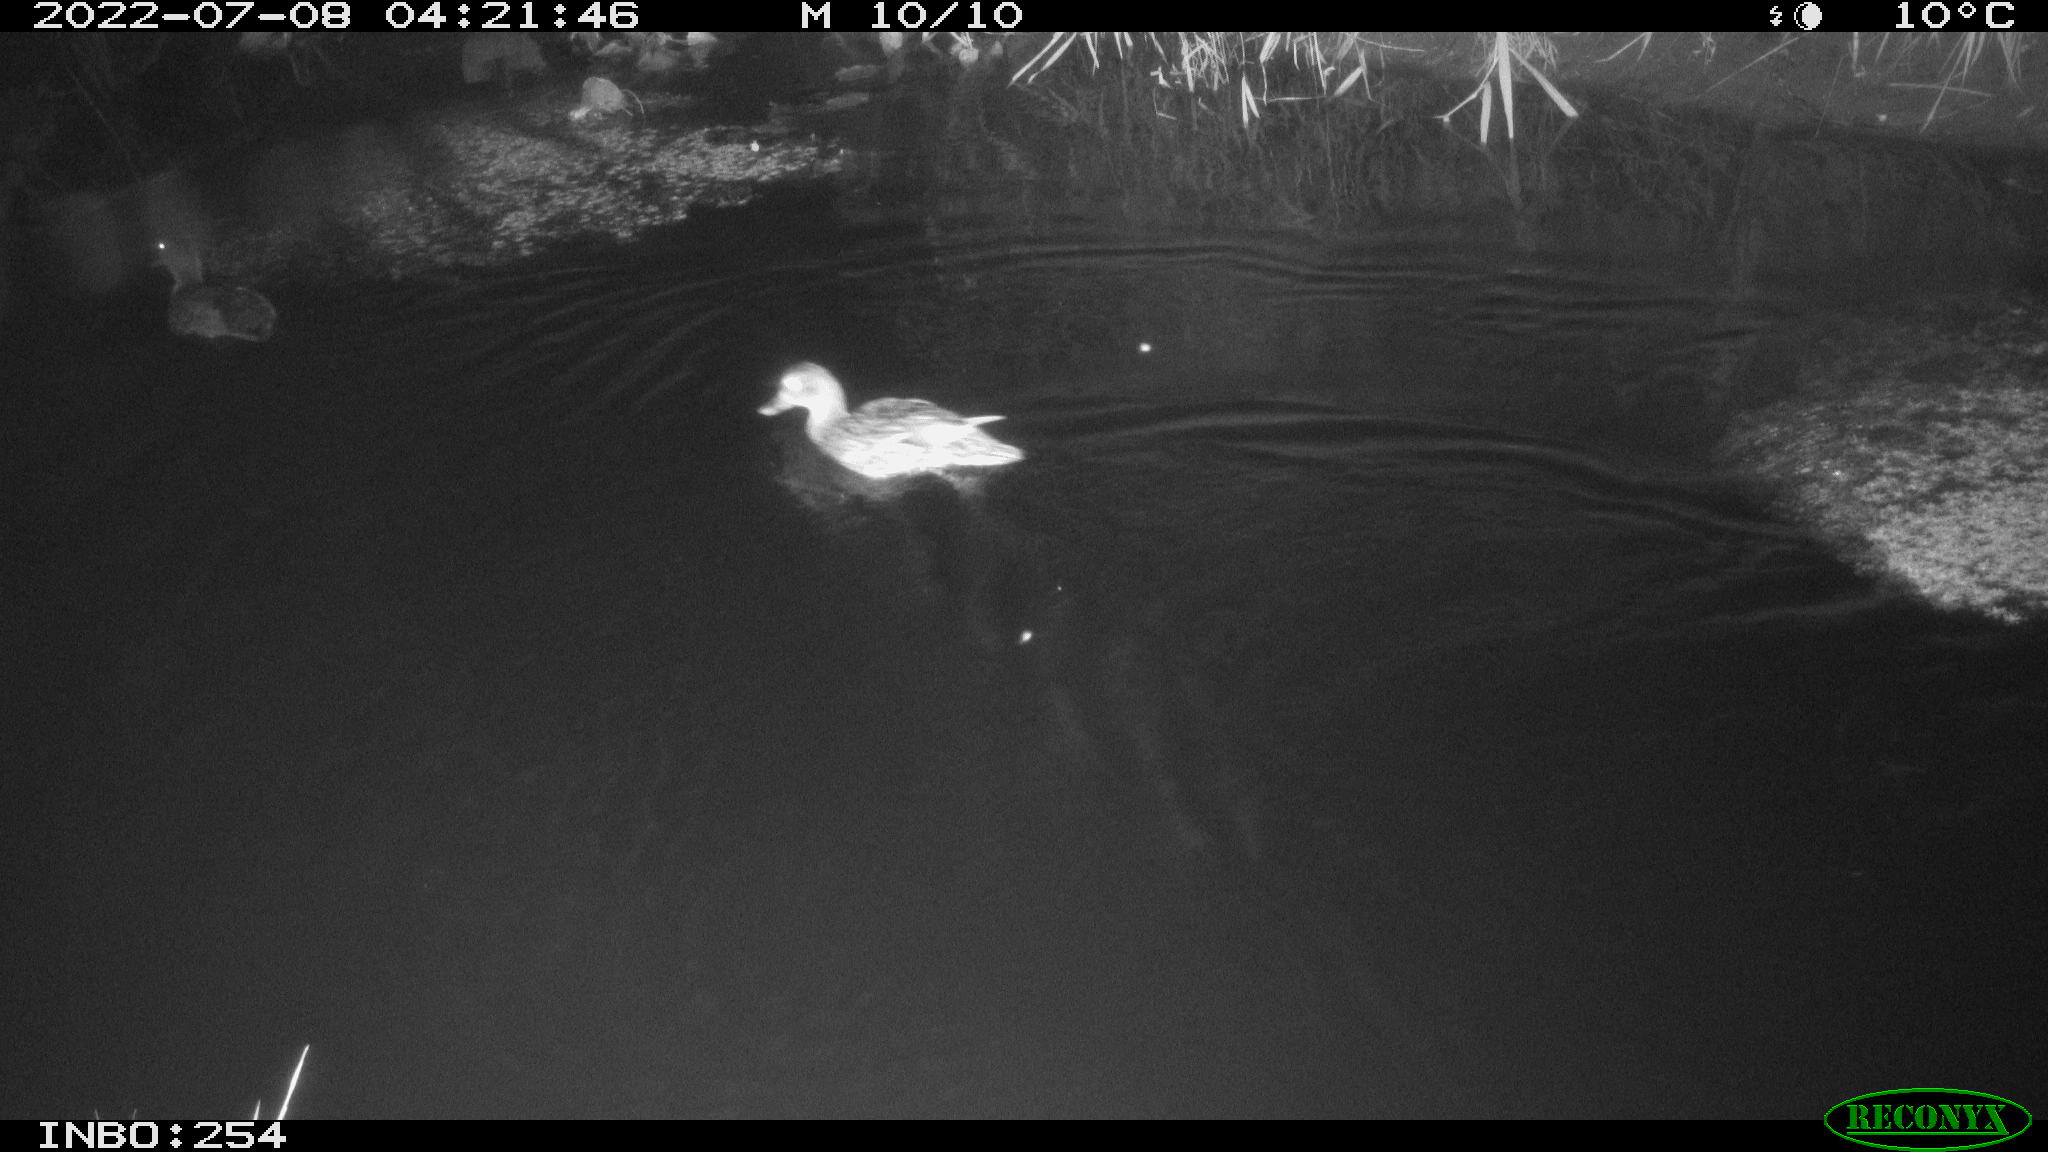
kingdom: Animalia
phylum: Chordata
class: Aves
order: Anseriformes
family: Anatidae
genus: Anas
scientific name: Anas platyrhynchos
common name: Mallard
